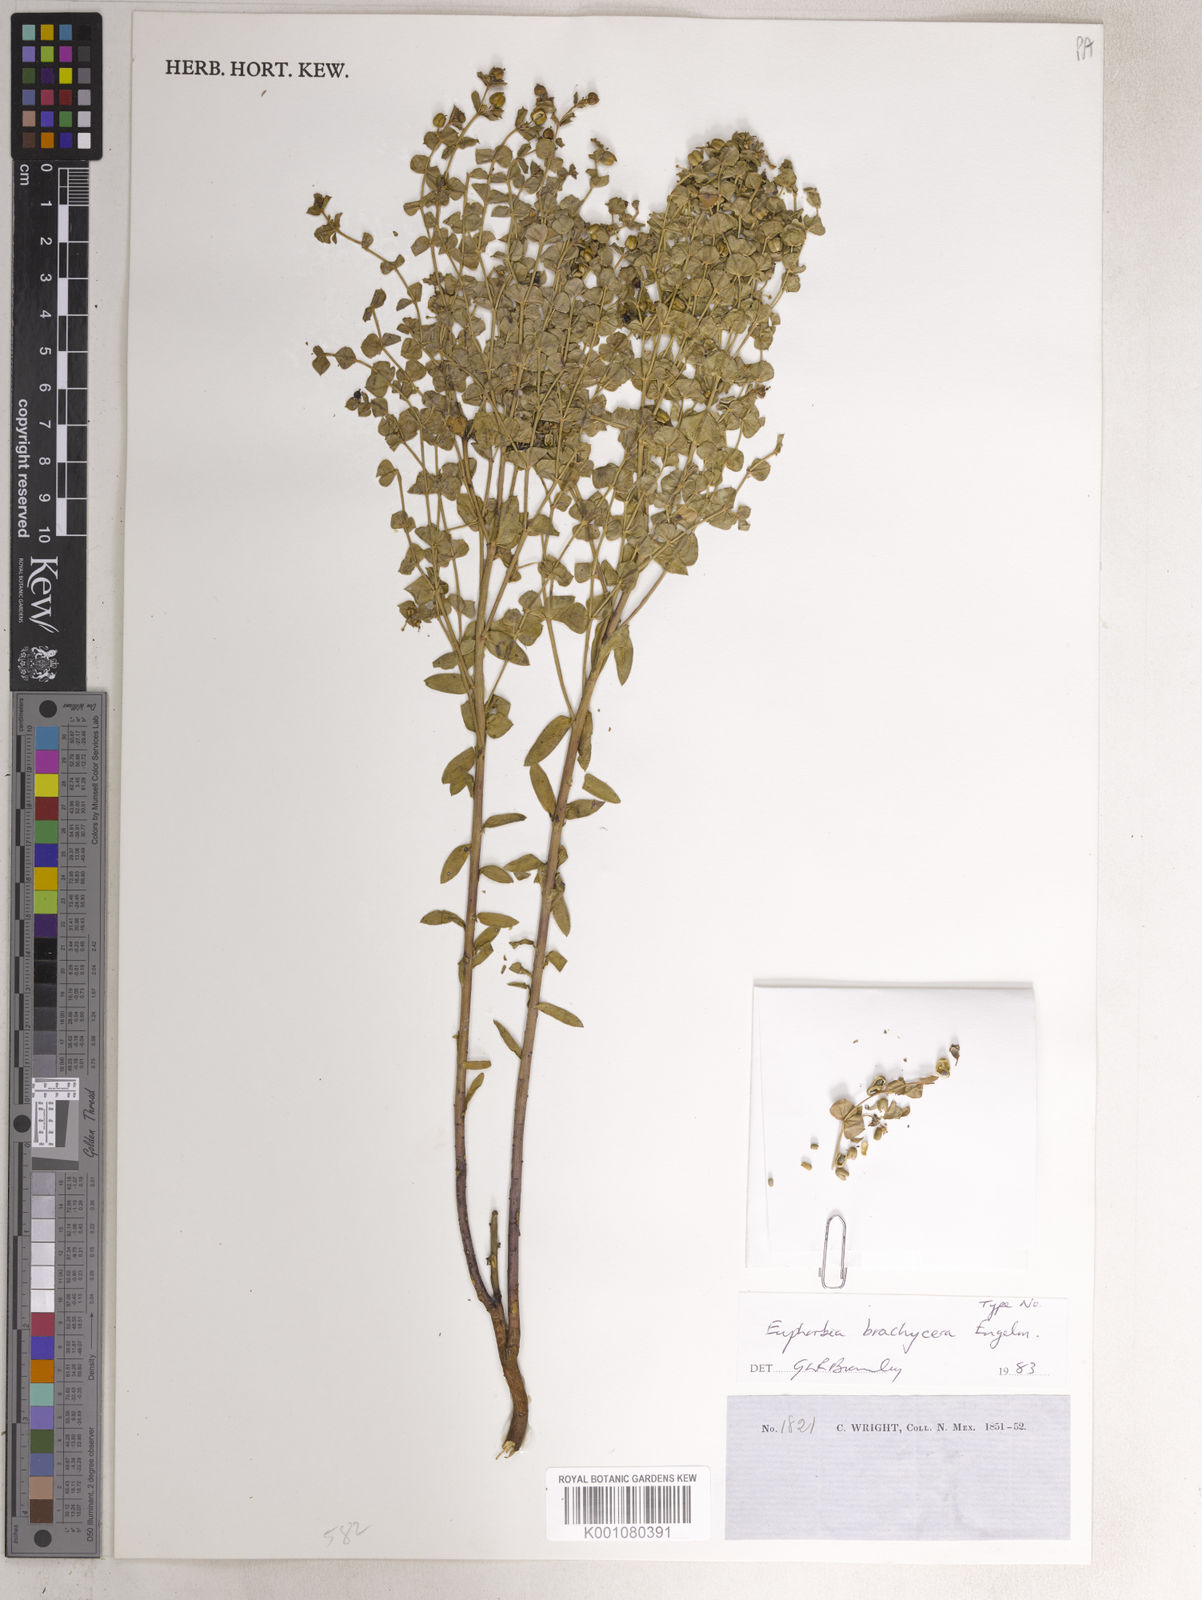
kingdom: Plantae
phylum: Tracheophyta
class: Magnoliopsida
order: Malpighiales
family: Euphorbiaceae
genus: Euphorbia
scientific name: Euphorbia
